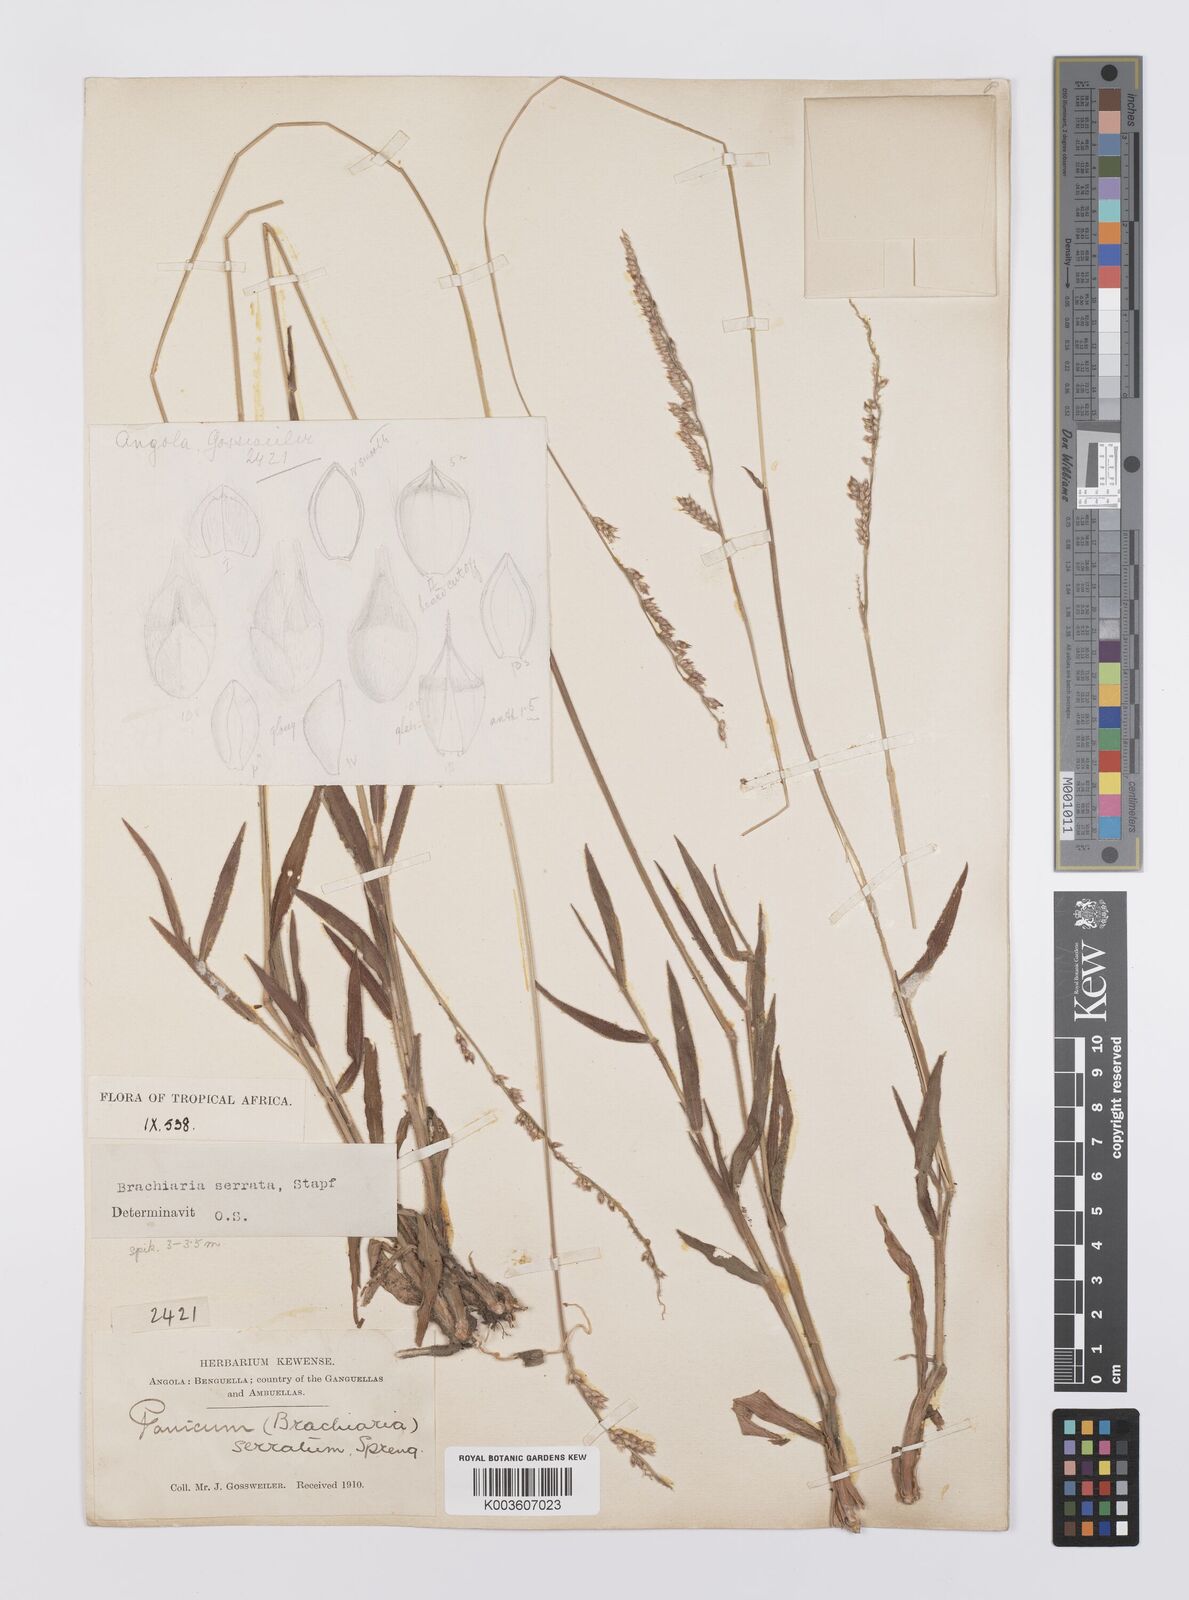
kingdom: Plantae
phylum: Tracheophyta
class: Liliopsida
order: Poales
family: Poaceae
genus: Urochloa
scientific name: Urochloa serrata
